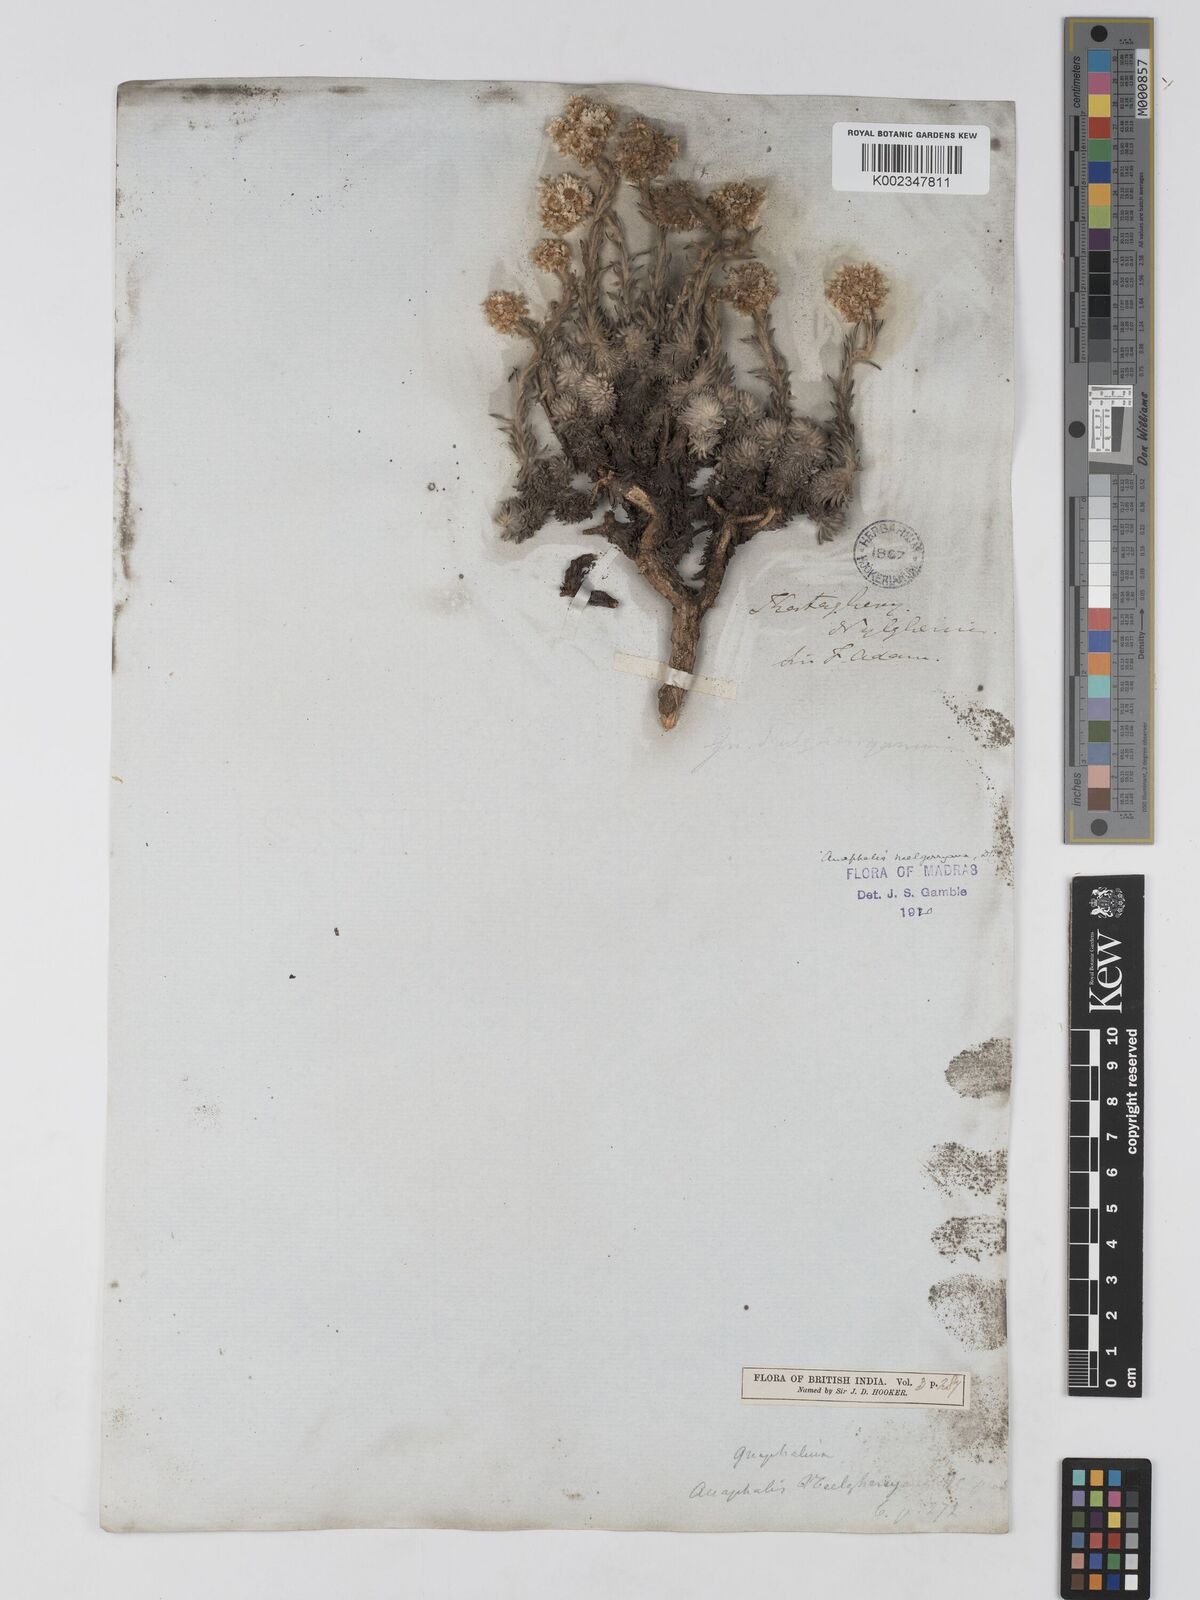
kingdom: Plantae
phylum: Tracheophyta
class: Magnoliopsida
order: Asterales
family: Asteraceae
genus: Anaphalis
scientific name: Anaphalis neelgerryana
